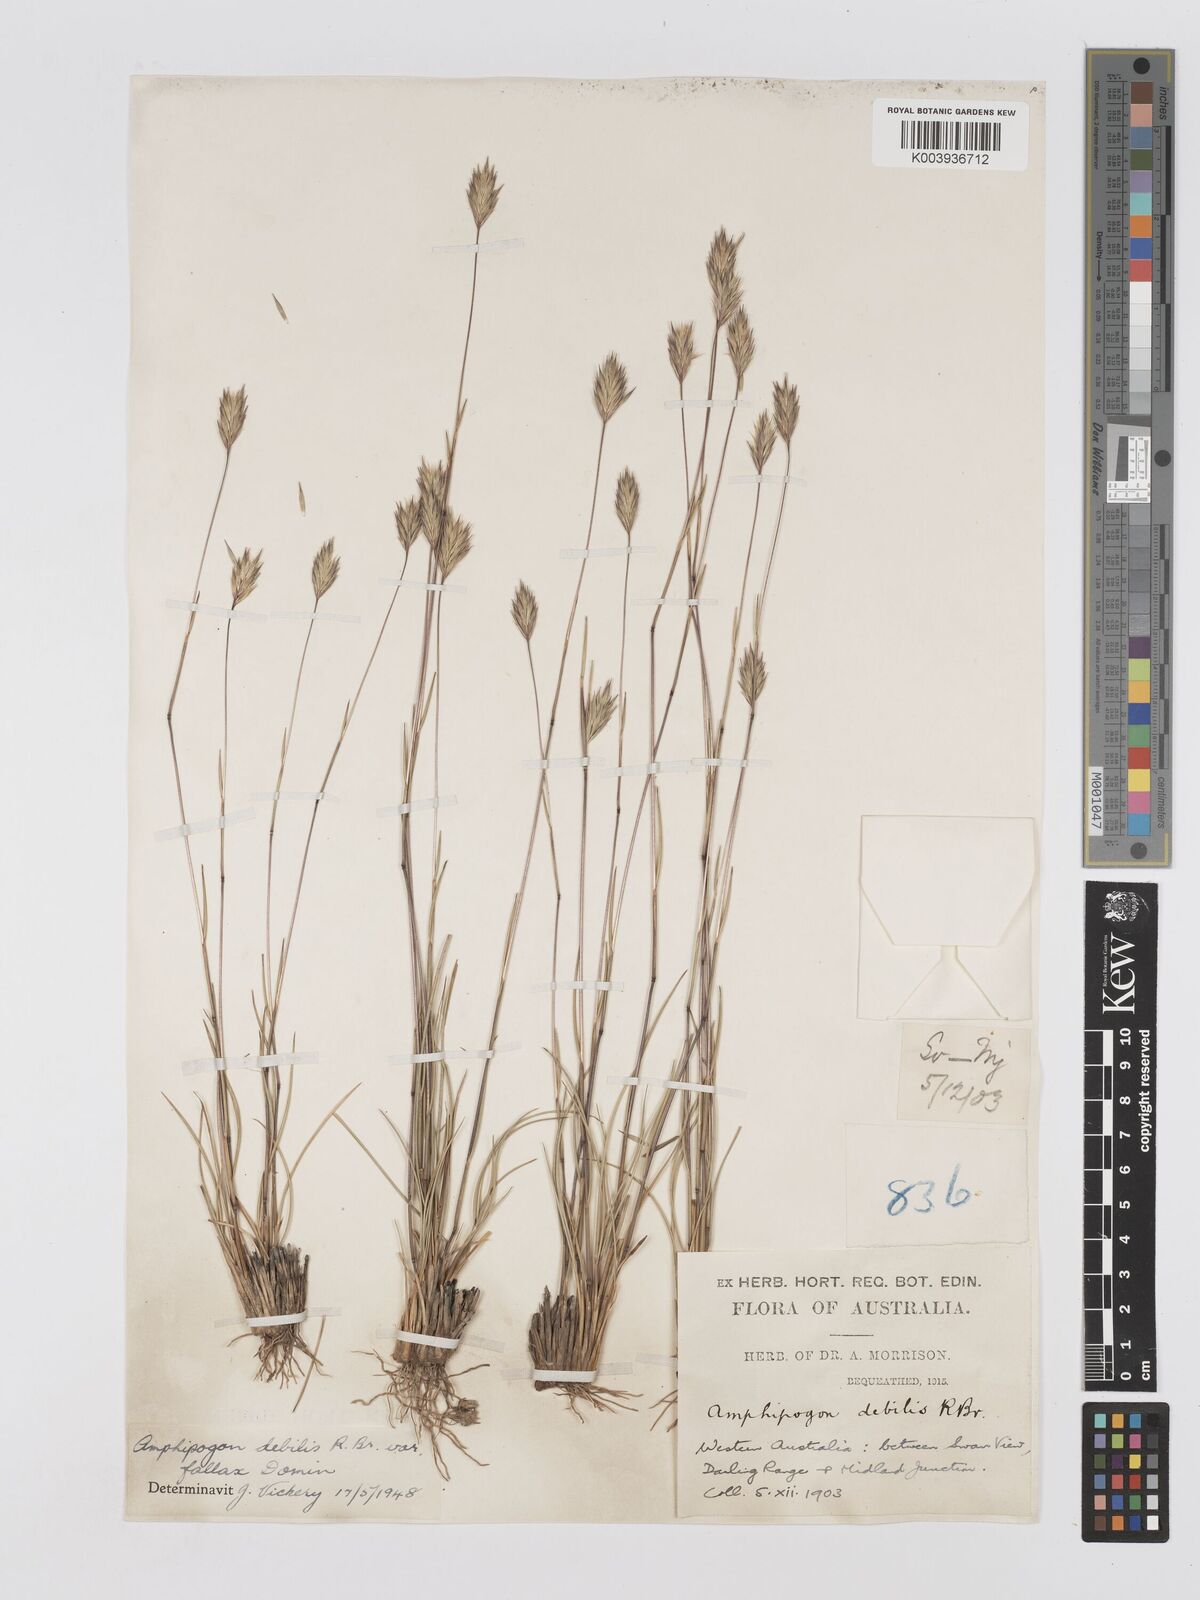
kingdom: Plantae
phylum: Tracheophyta
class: Liliopsida
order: Poales
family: Poaceae
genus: Amphipogon
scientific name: Amphipogon debilis
